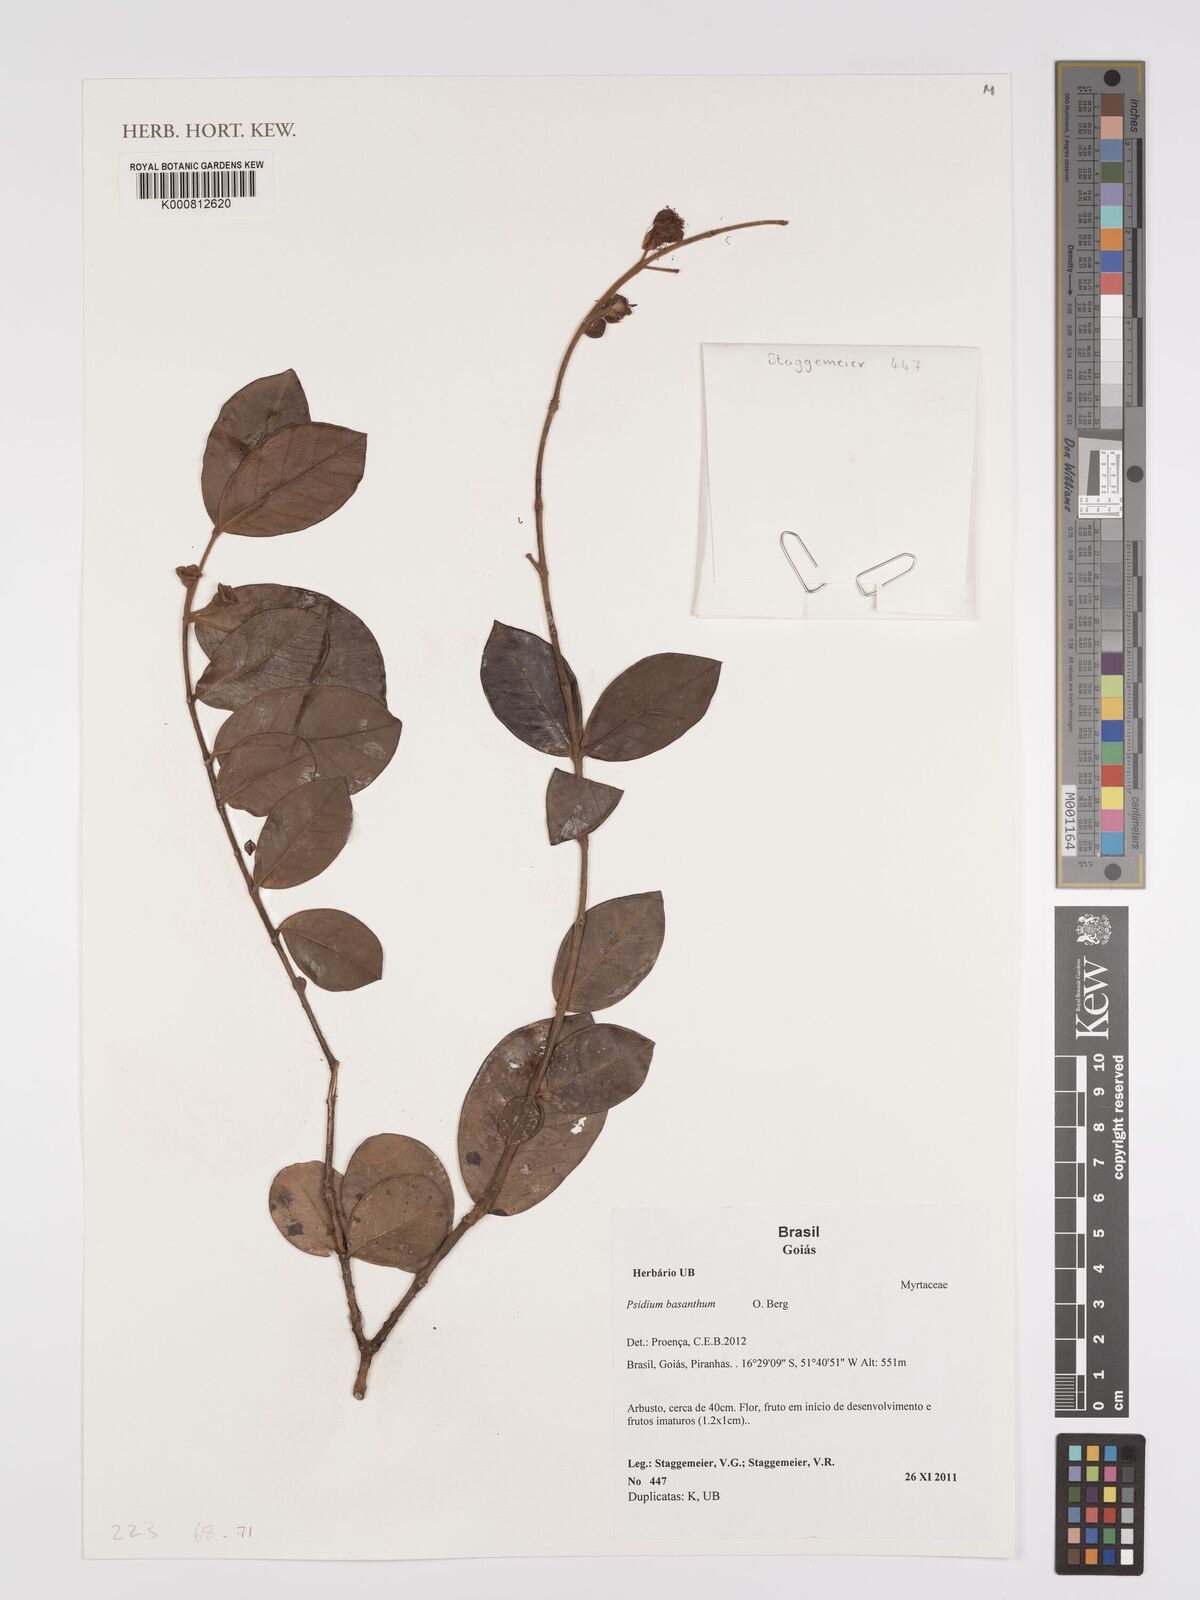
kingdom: Plantae
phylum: Tracheophyta
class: Magnoliopsida
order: Myrtales
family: Myrtaceae
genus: Psidium
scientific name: Psidium basanthum
